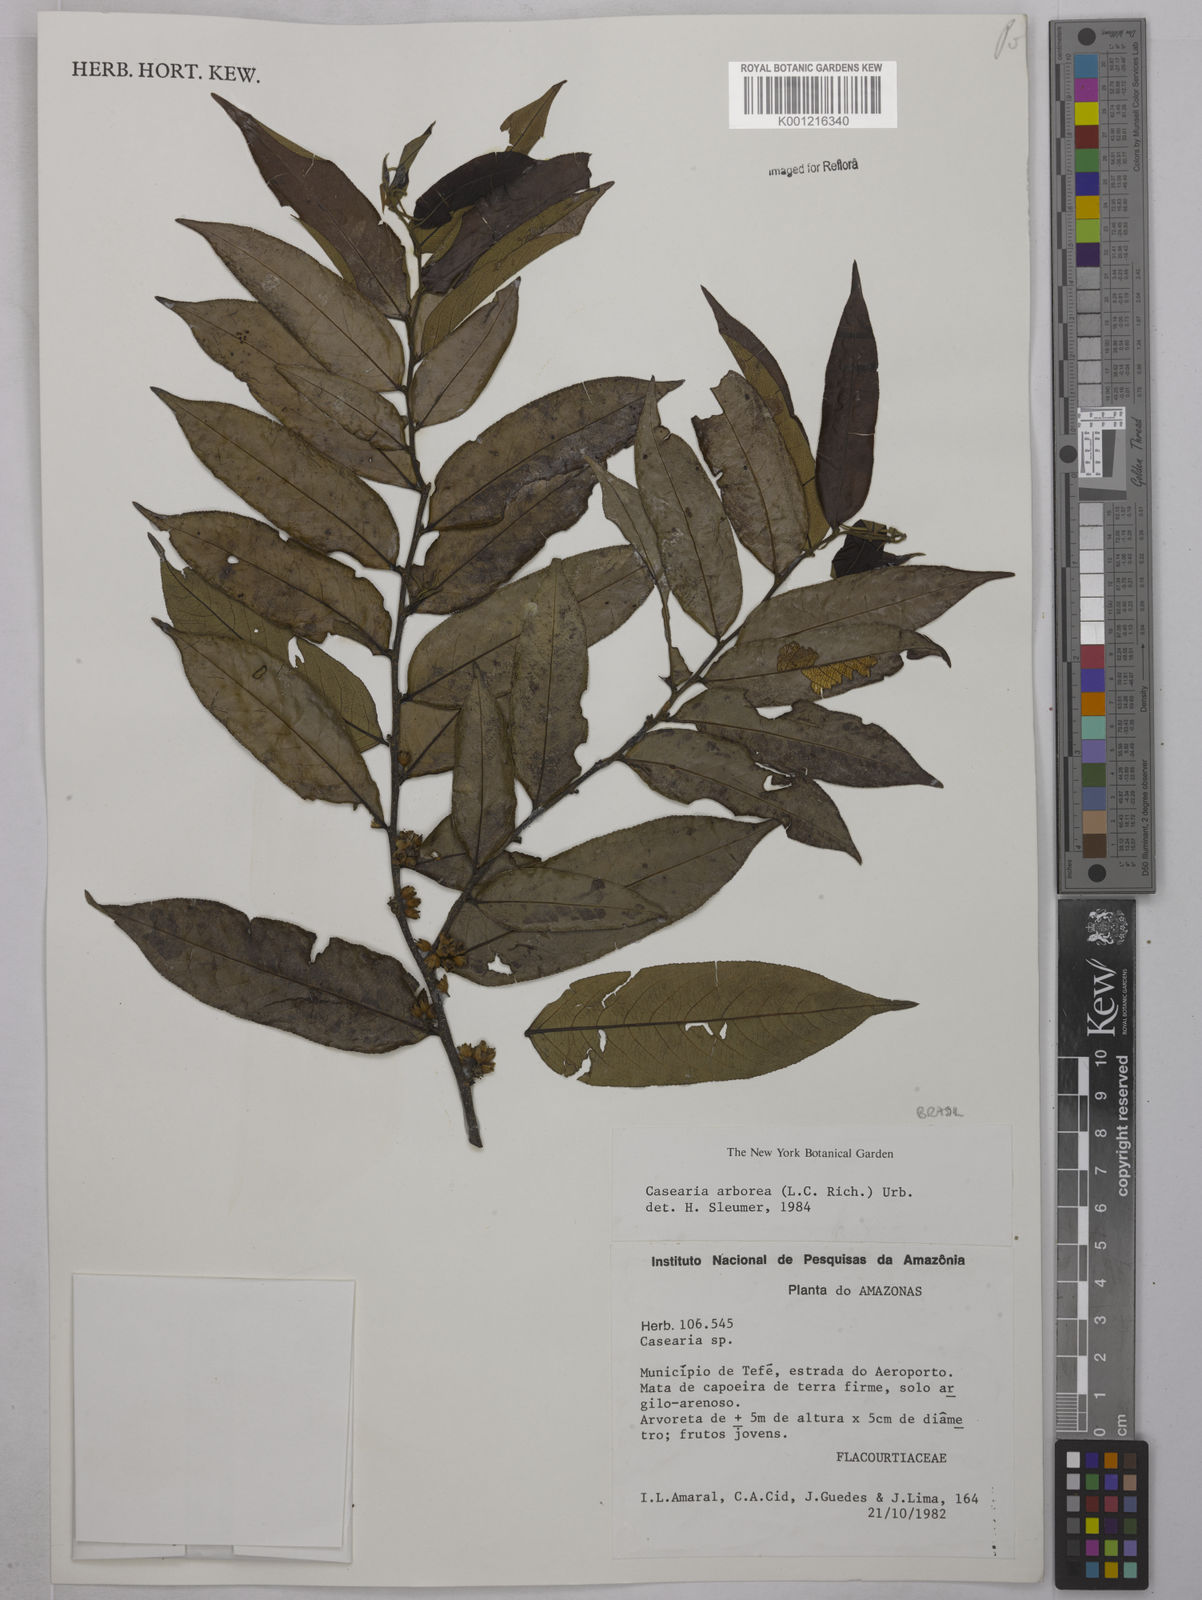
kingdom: Plantae
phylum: Tracheophyta
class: Magnoliopsida
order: Malpighiales
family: Salicaceae
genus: Casearia
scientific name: Casearia arborea
